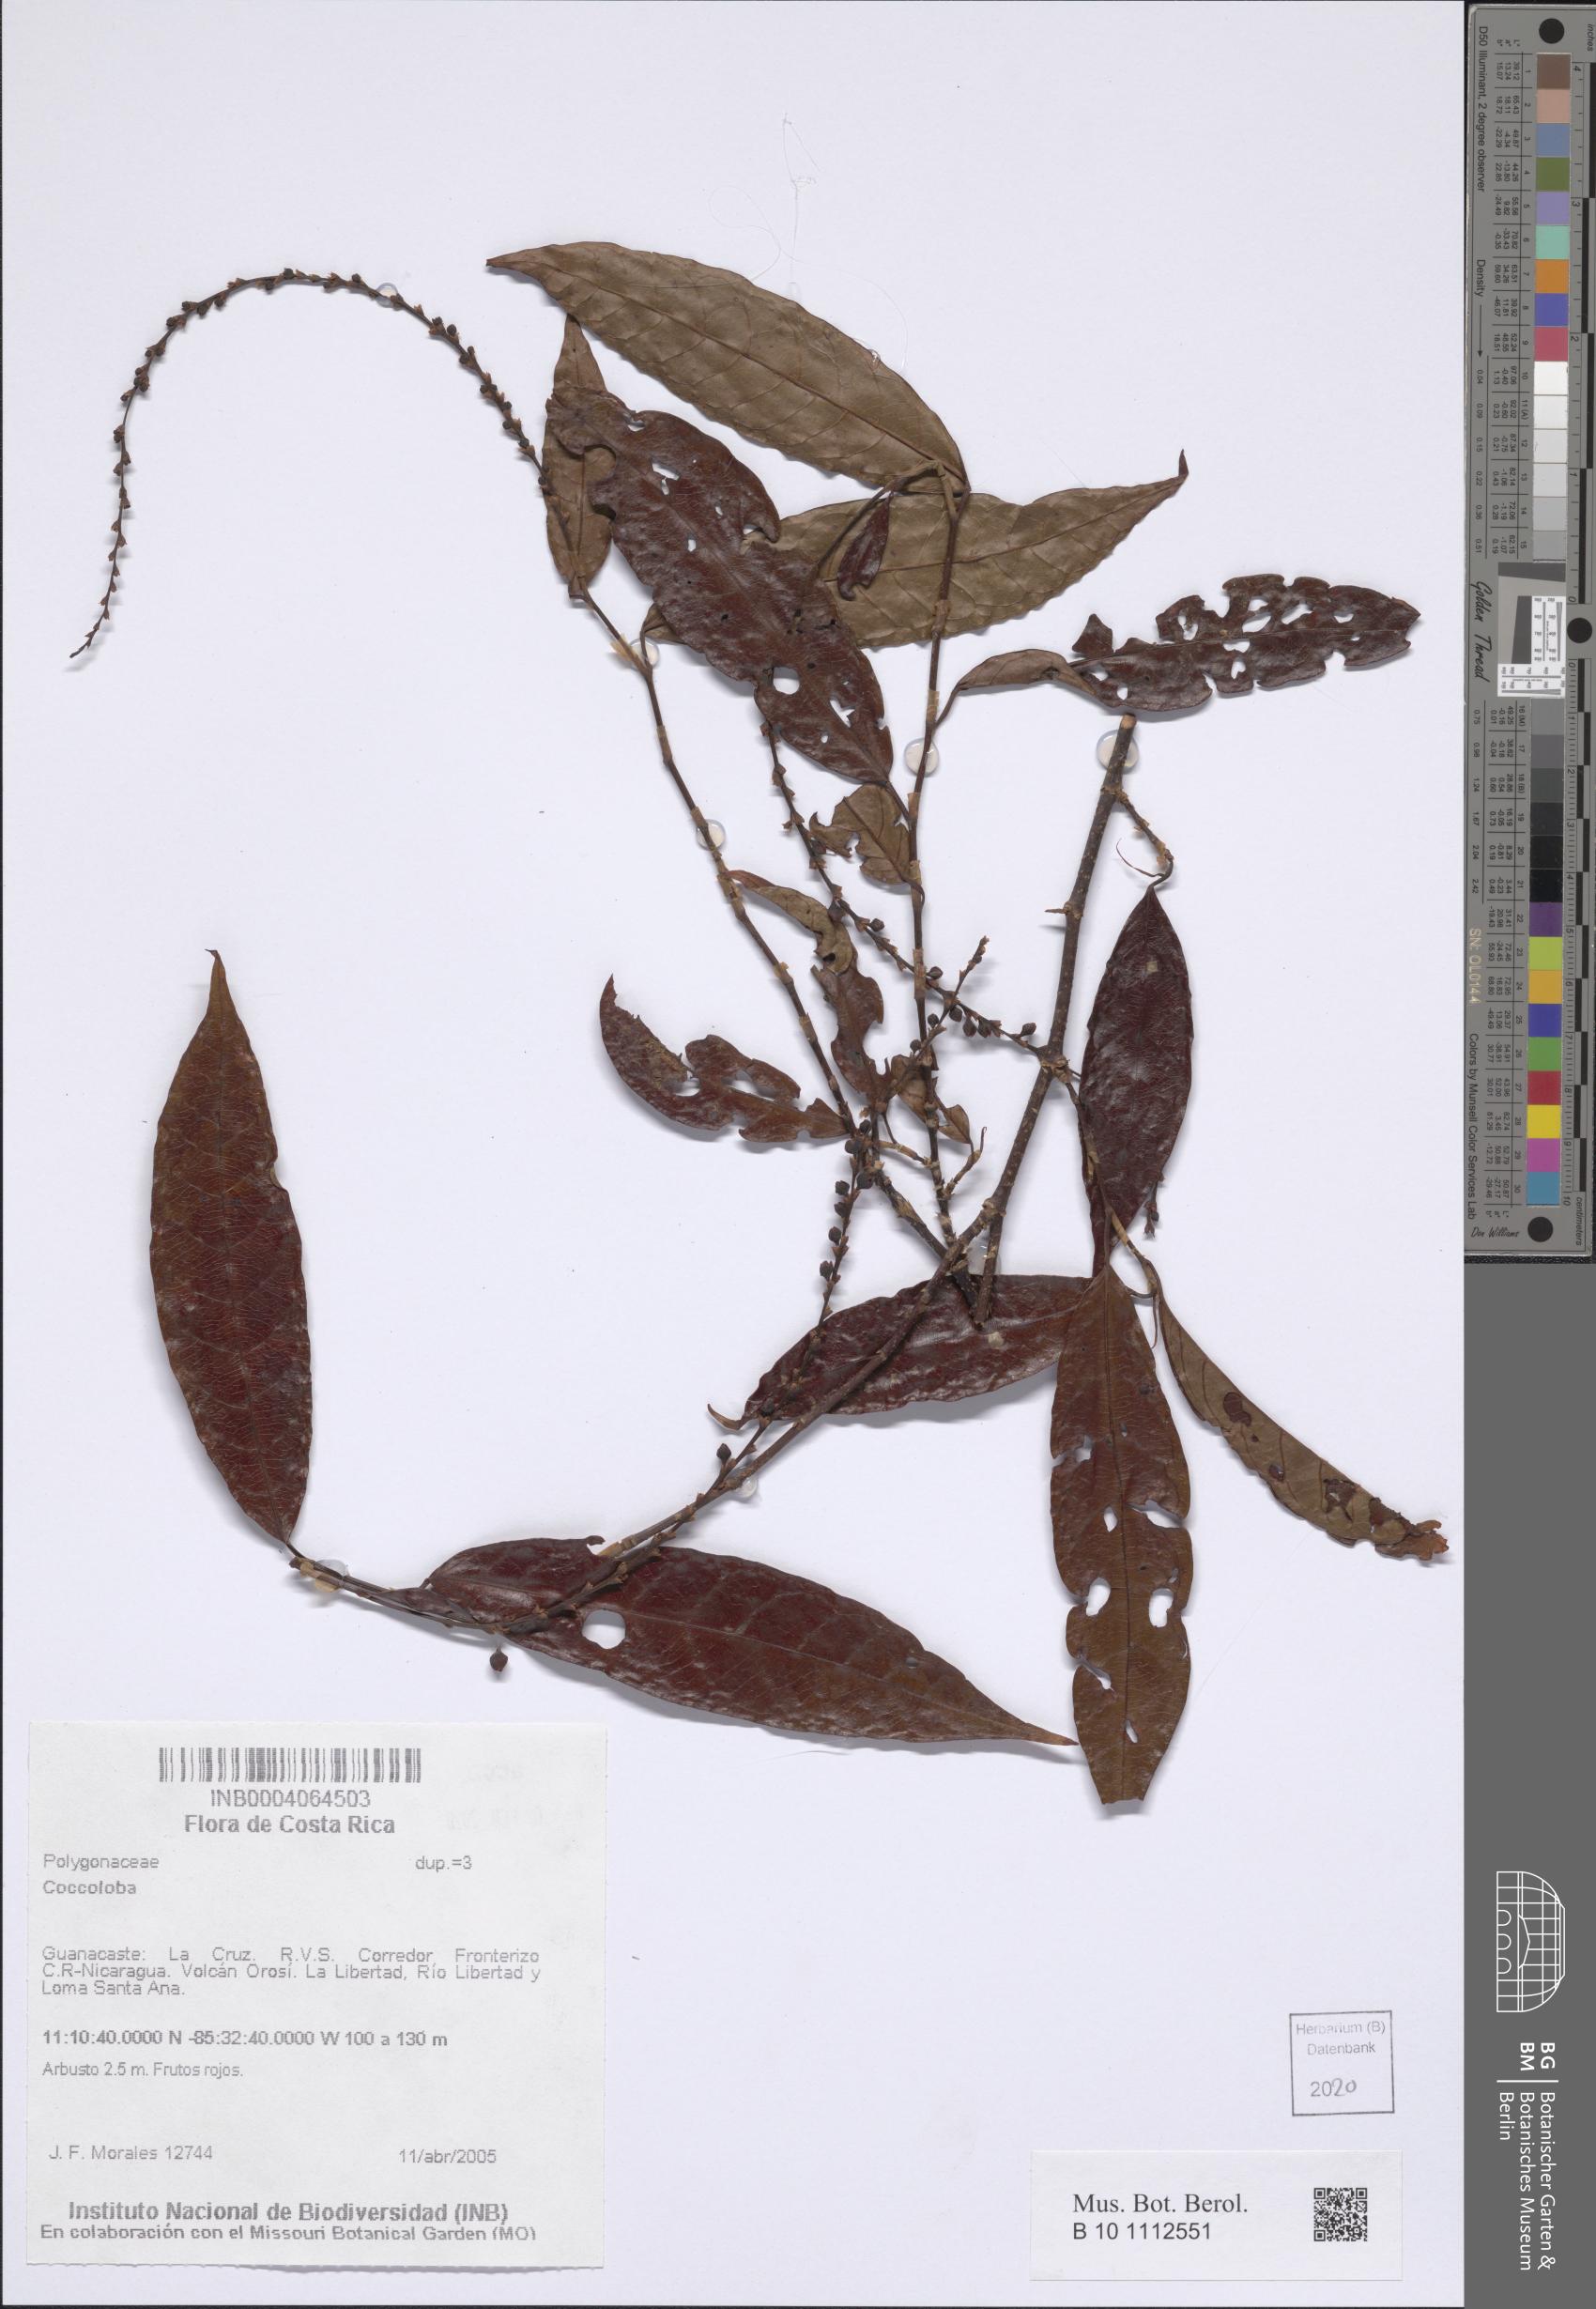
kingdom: Plantae
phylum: Tracheophyta
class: Magnoliopsida
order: Caryophyllales
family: Polygonaceae
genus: Coccoloba
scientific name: Coccoloba
